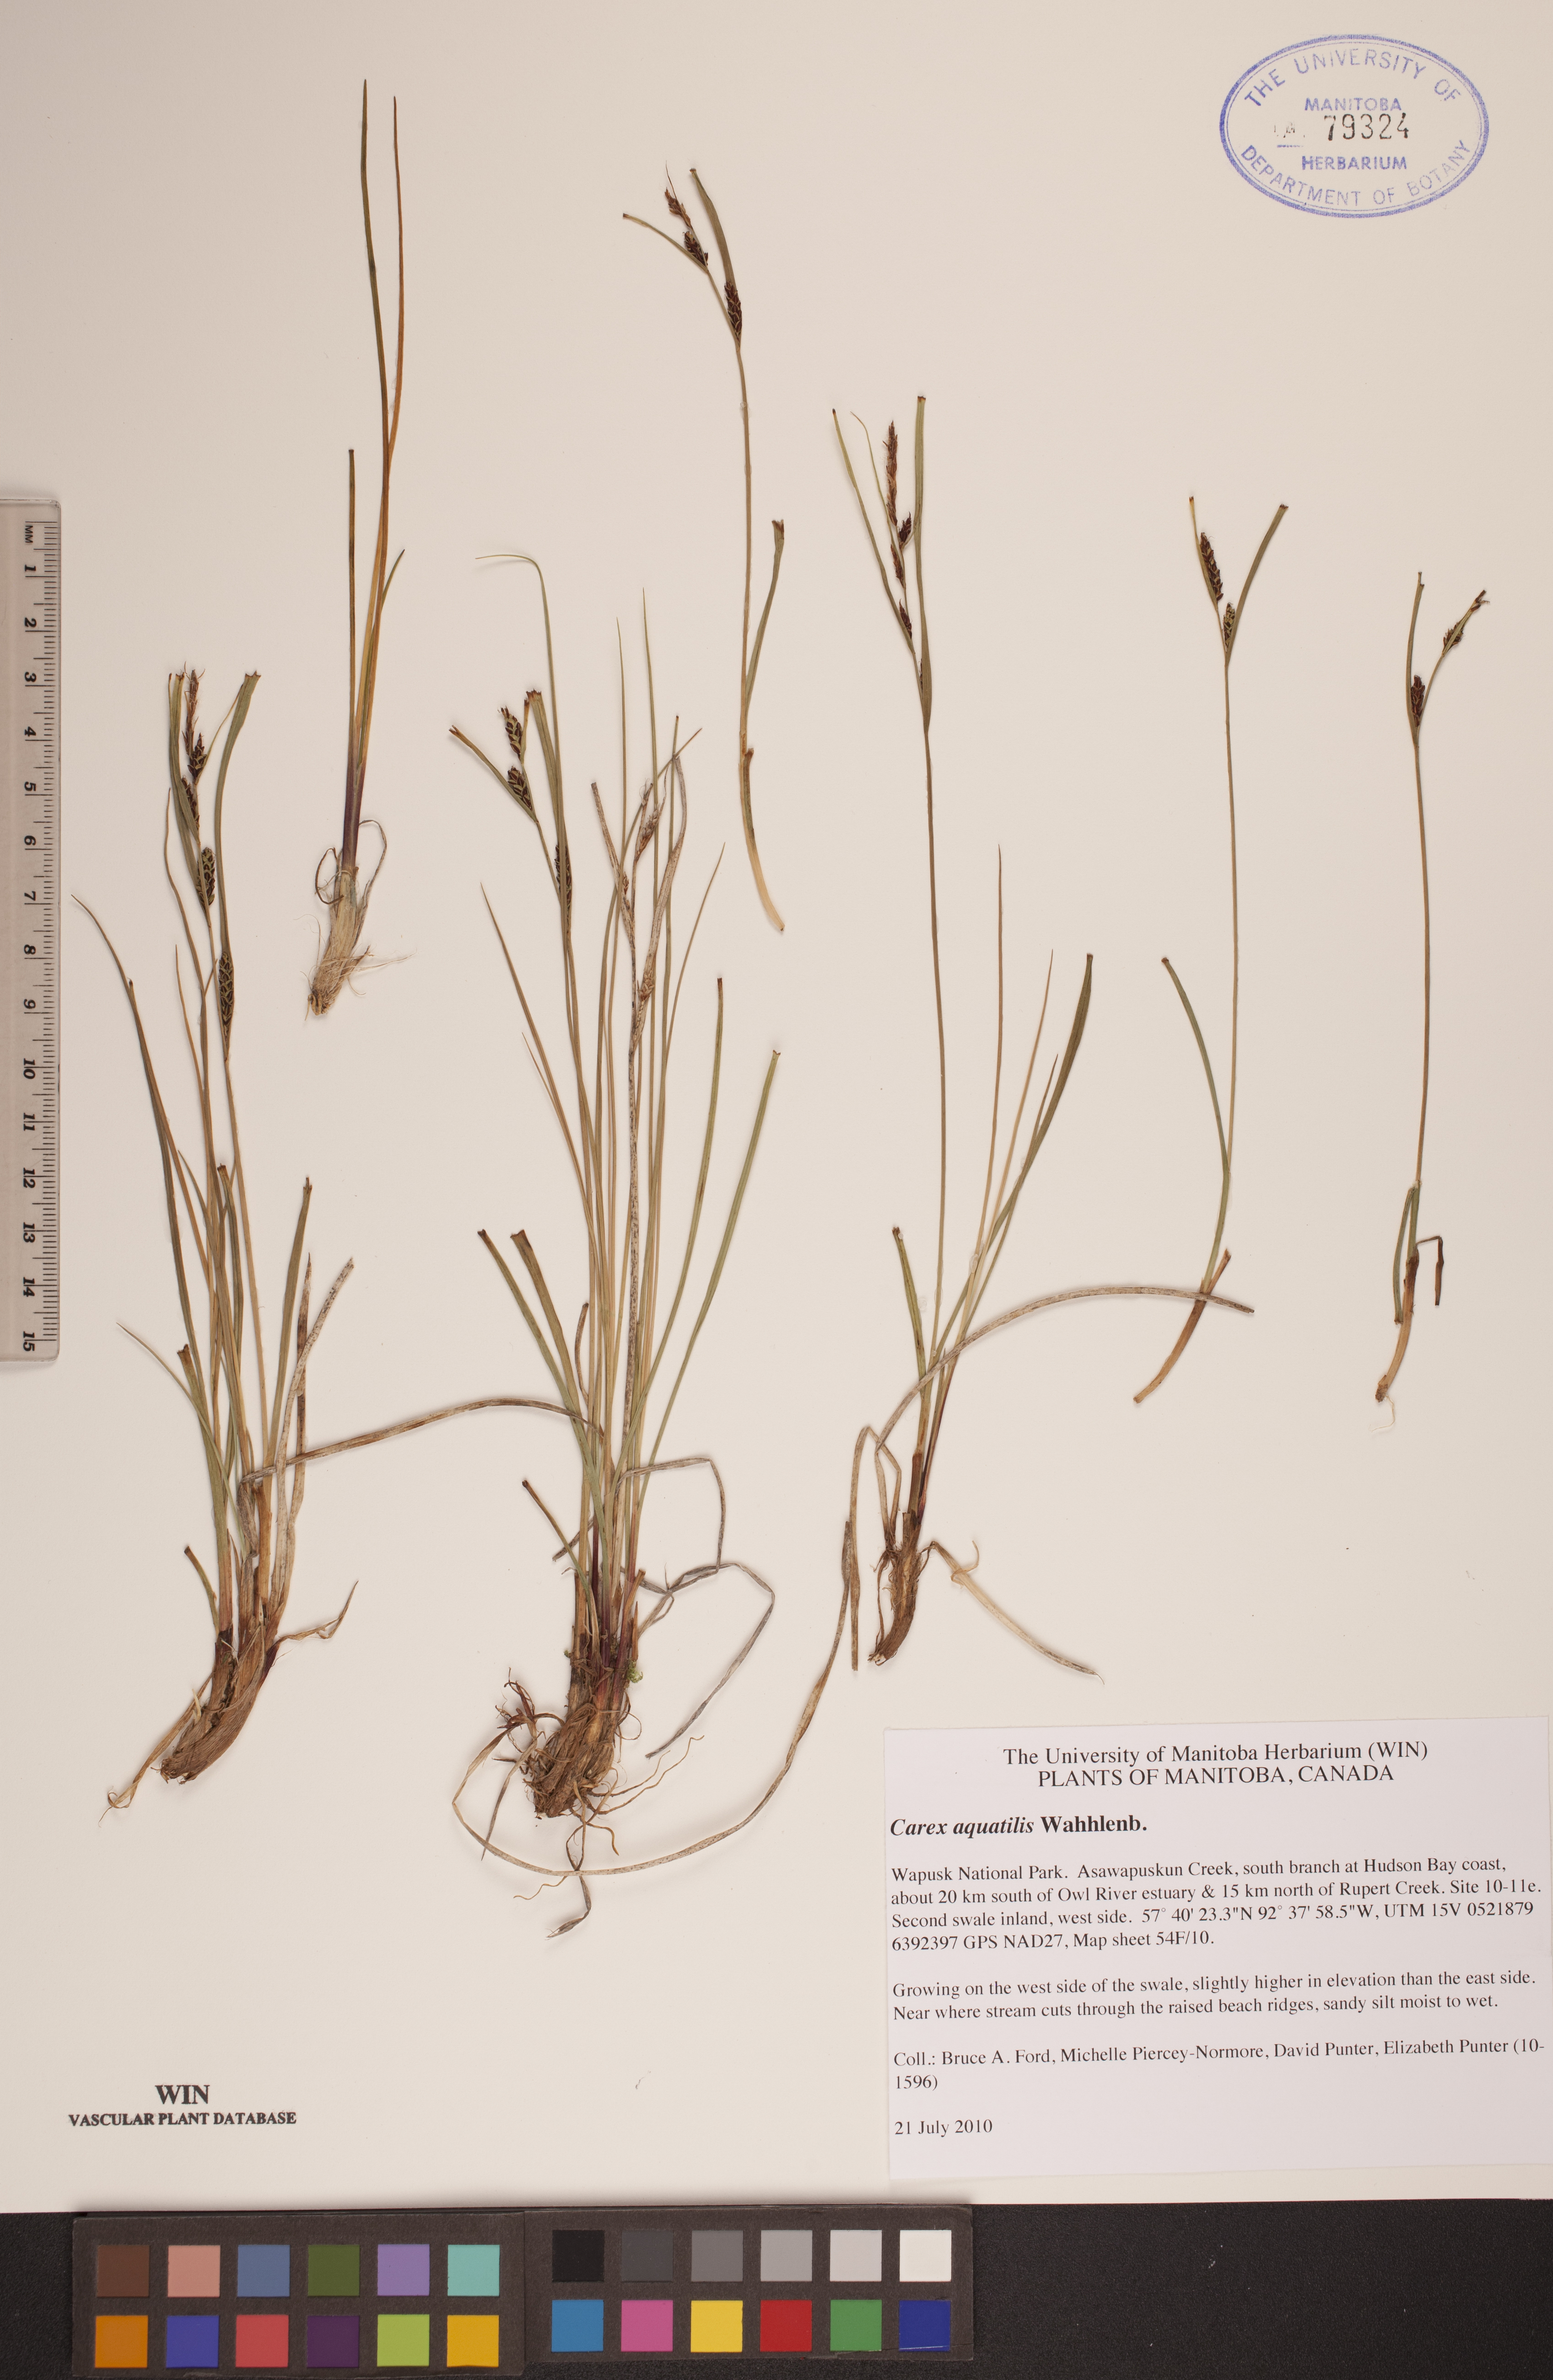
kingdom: Plantae
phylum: Tracheophyta
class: Liliopsida
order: Poales
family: Cyperaceae
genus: Carex
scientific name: Carex aquatilis
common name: Water sedge
